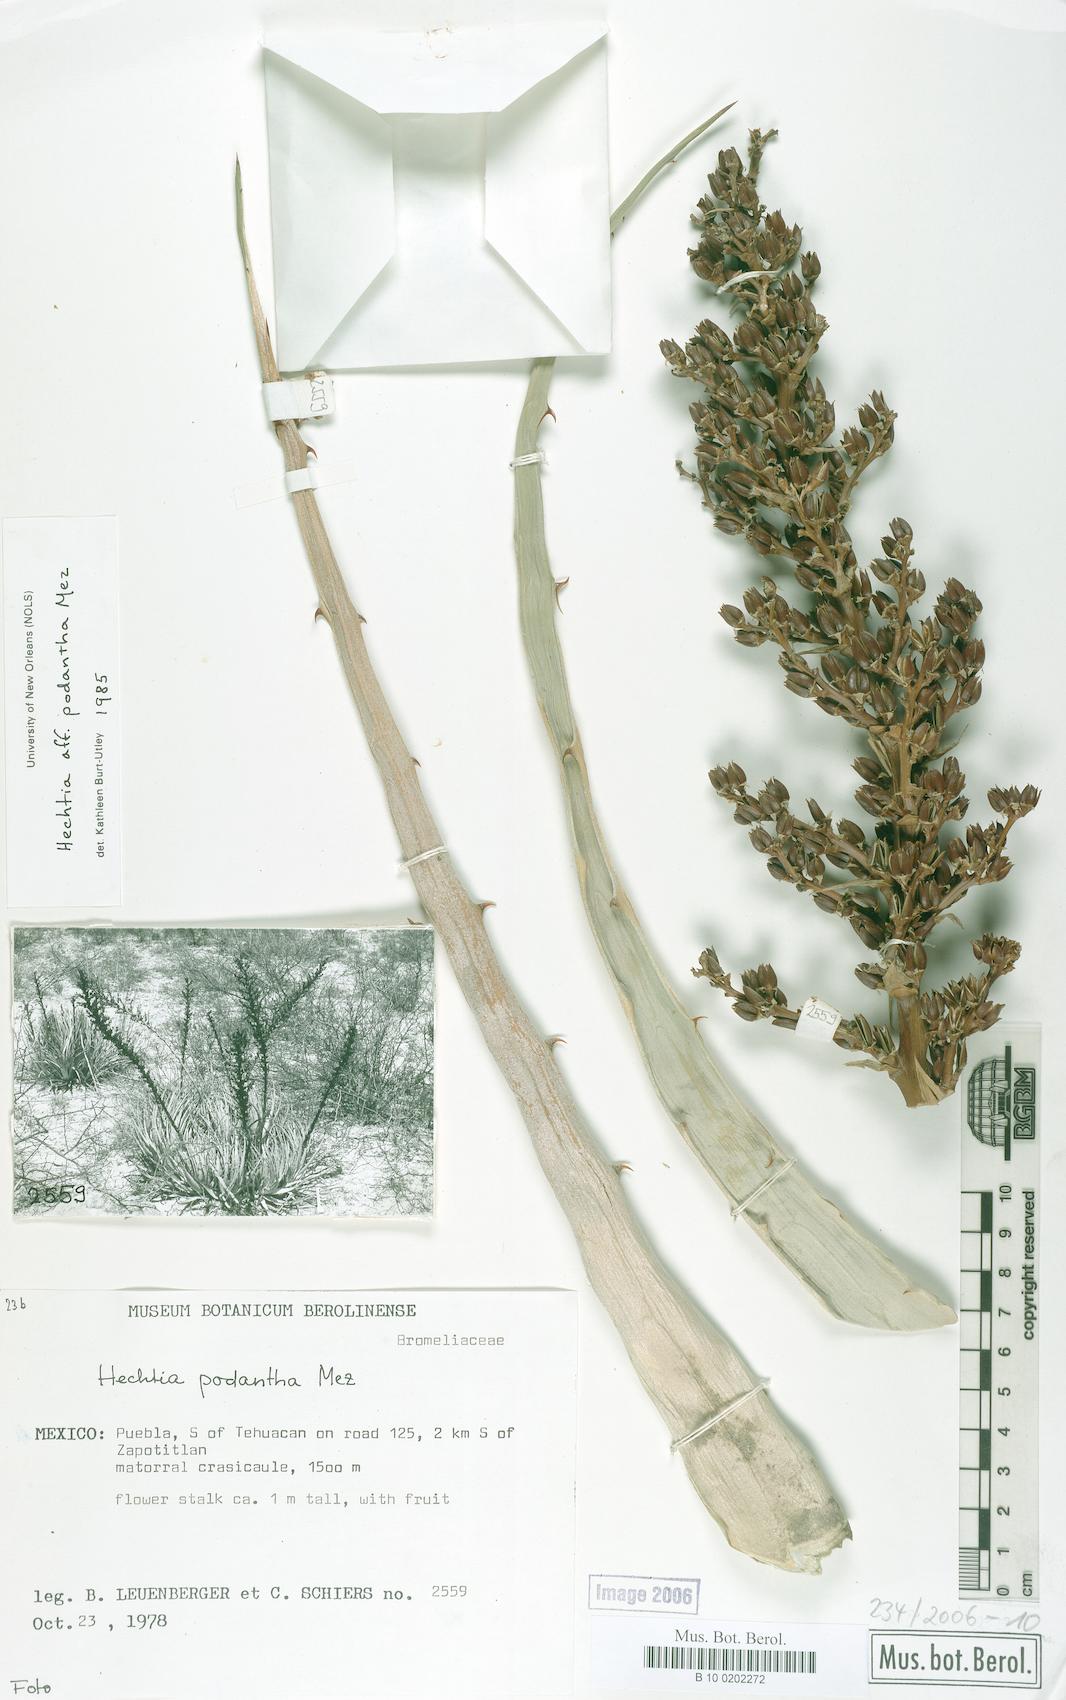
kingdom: Plantae
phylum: Tracheophyta
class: Liliopsida
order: Poales
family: Bromeliaceae
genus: Hechtia
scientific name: Hechtia podantha
